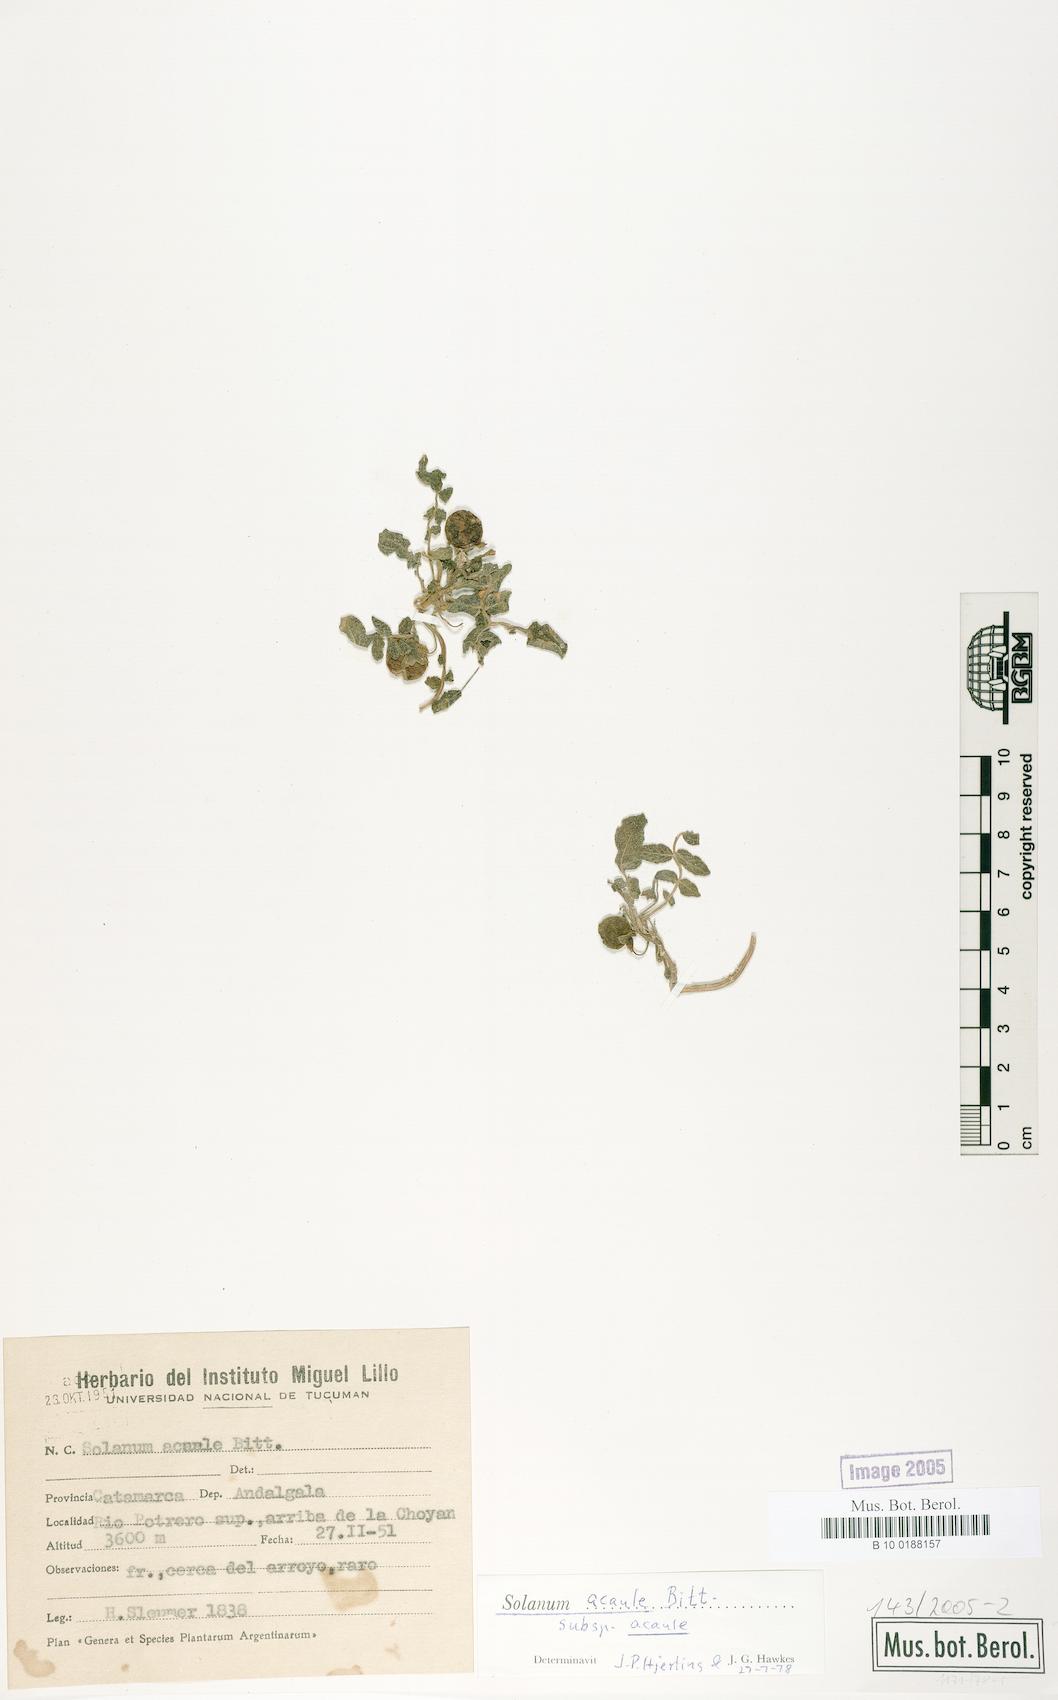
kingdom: Plantae
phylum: Tracheophyta
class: Magnoliopsida
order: Solanales
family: Solanaceae
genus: Solanum
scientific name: Solanum acaule
